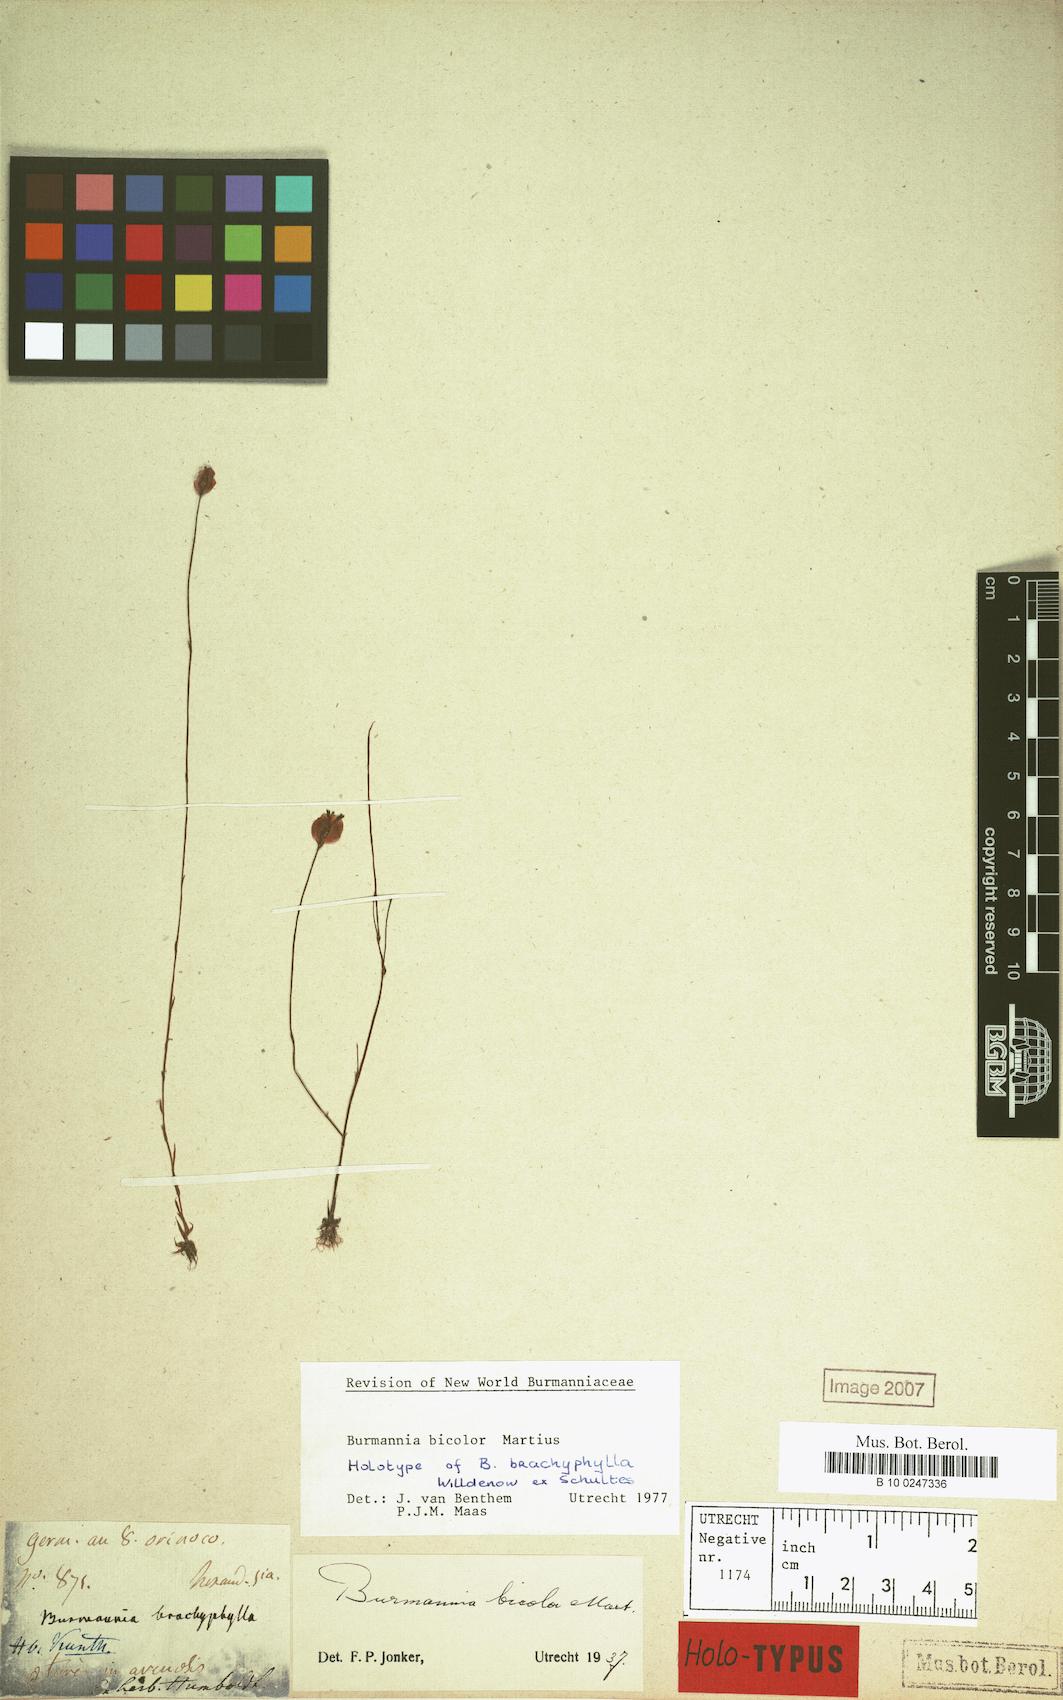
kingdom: Plantae
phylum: Tracheophyta
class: Liliopsida
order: Dioscoreales
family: Burmanniaceae
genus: Burmannia
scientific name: Burmannia bicolor
